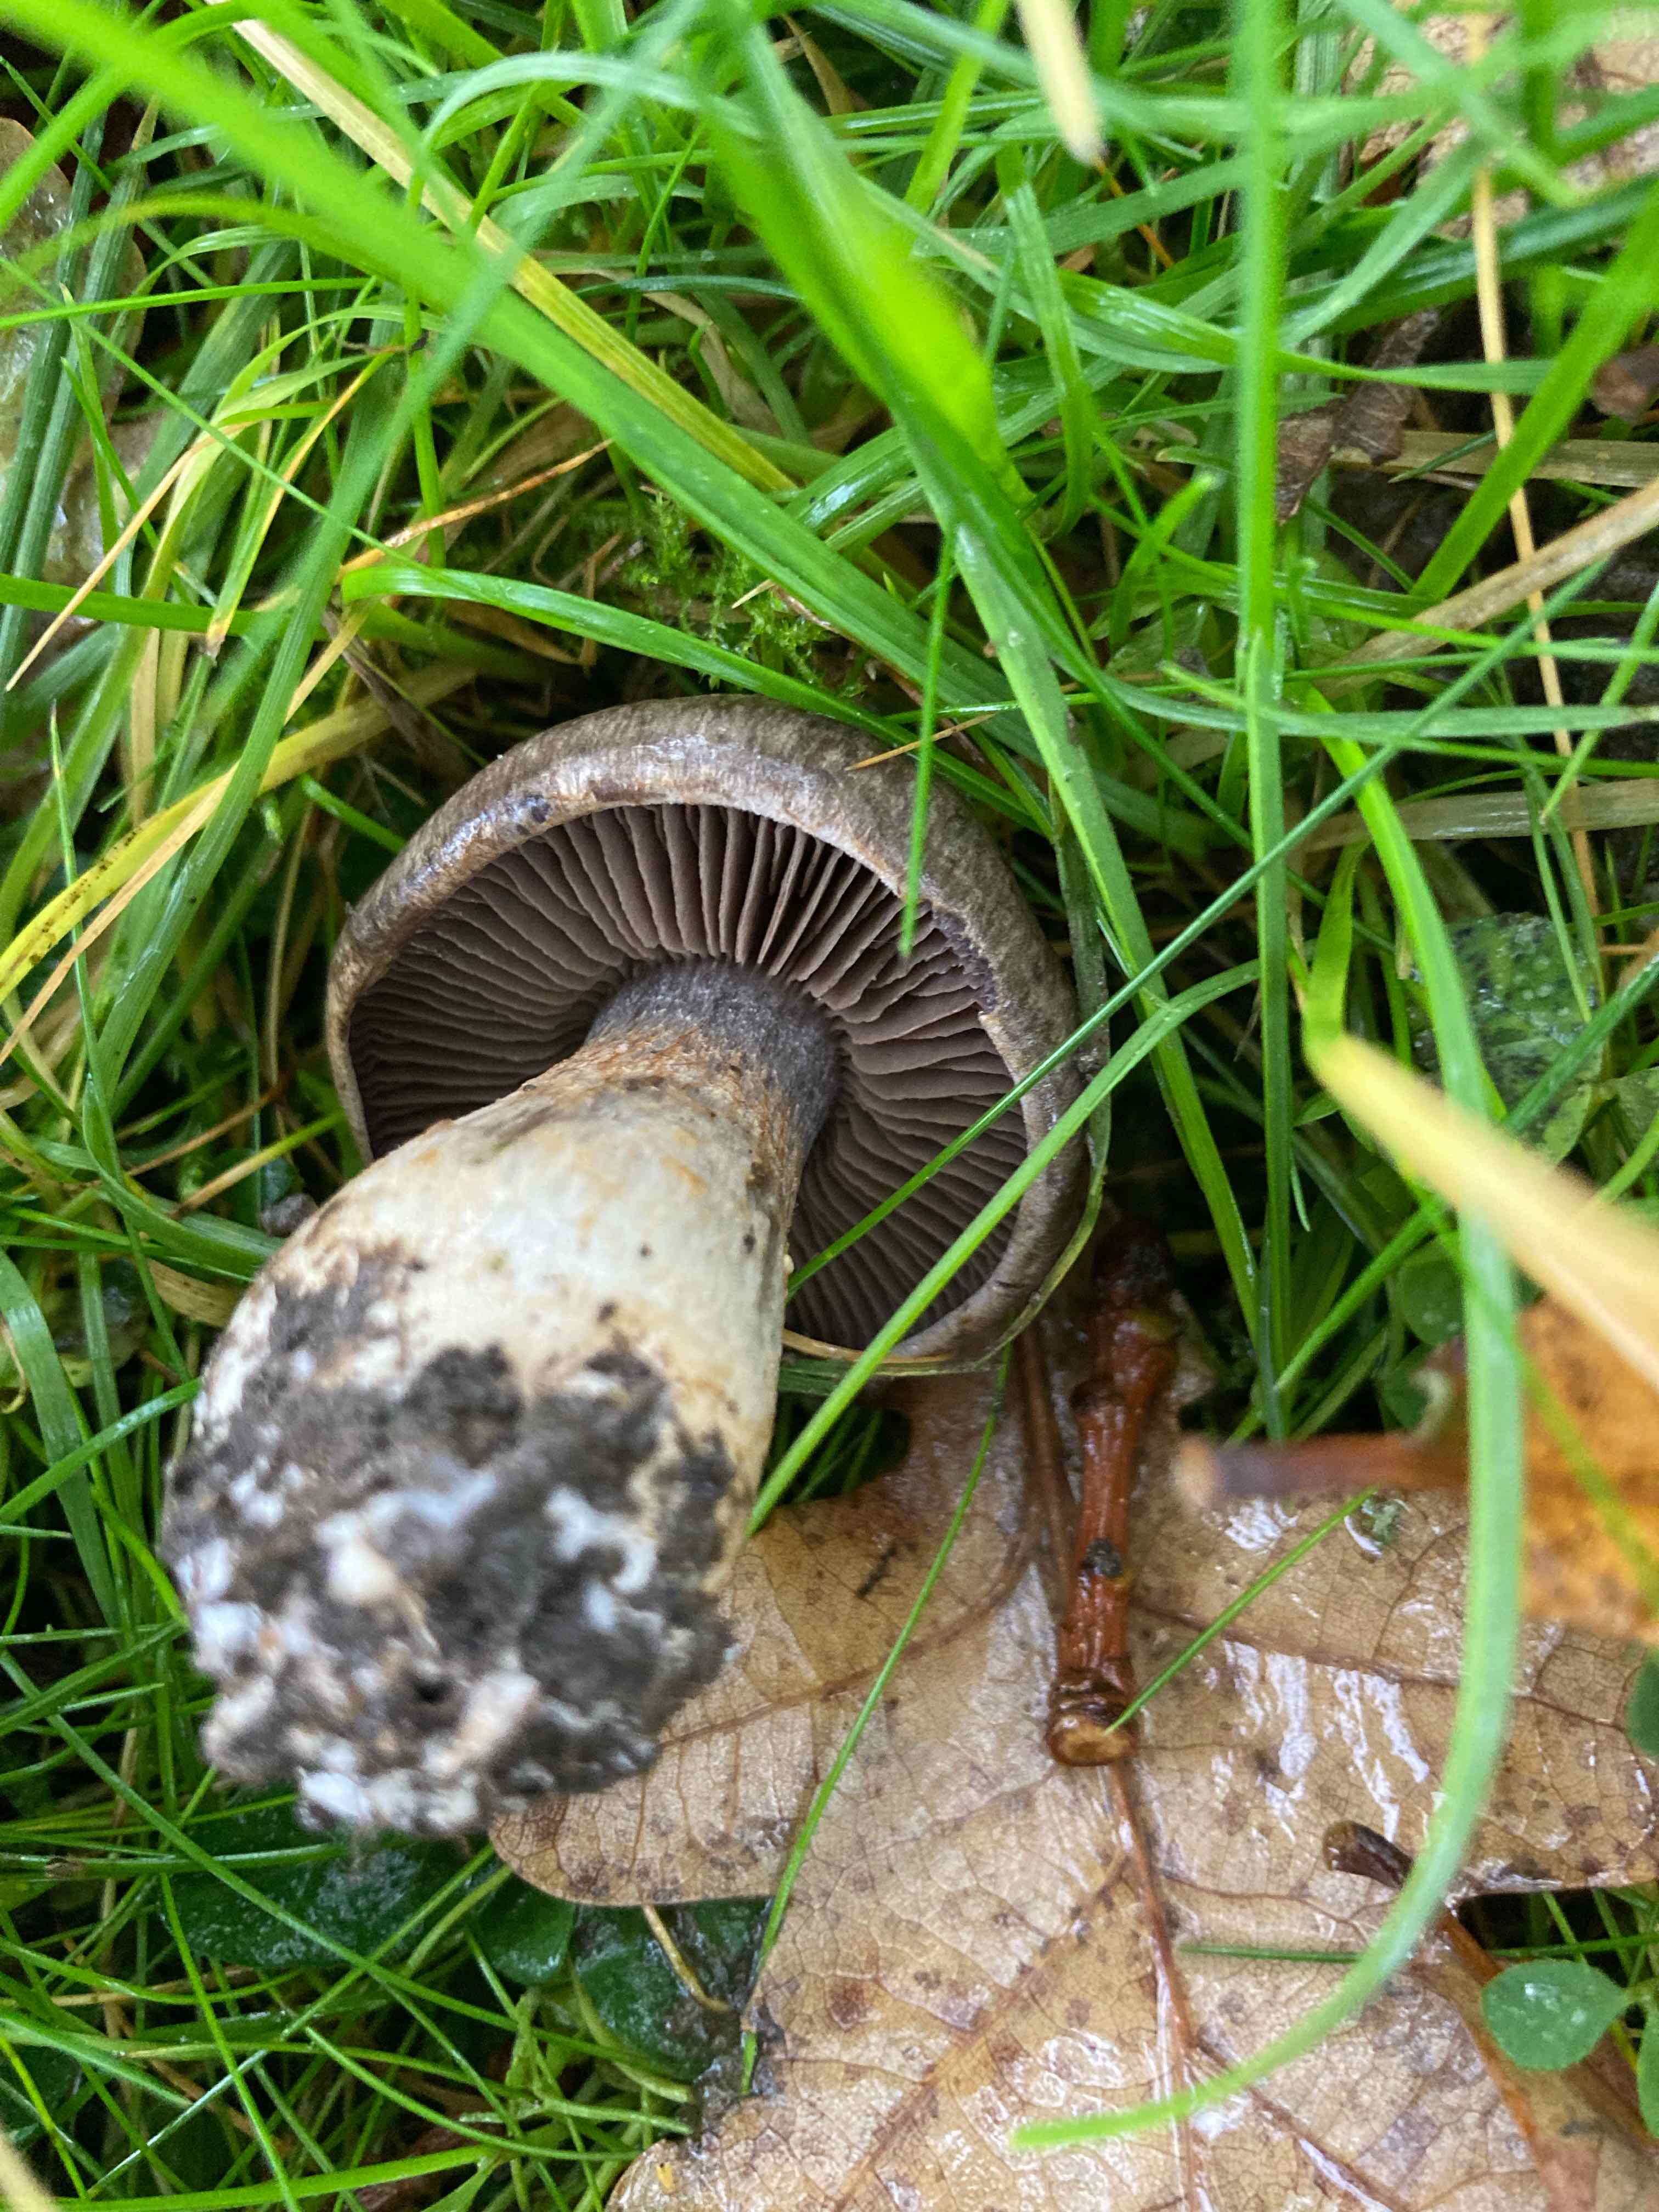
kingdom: Fungi
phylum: Basidiomycota
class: Agaricomycetes
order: Agaricales
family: Cortinariaceae
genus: Cortinarius
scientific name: Cortinarius
